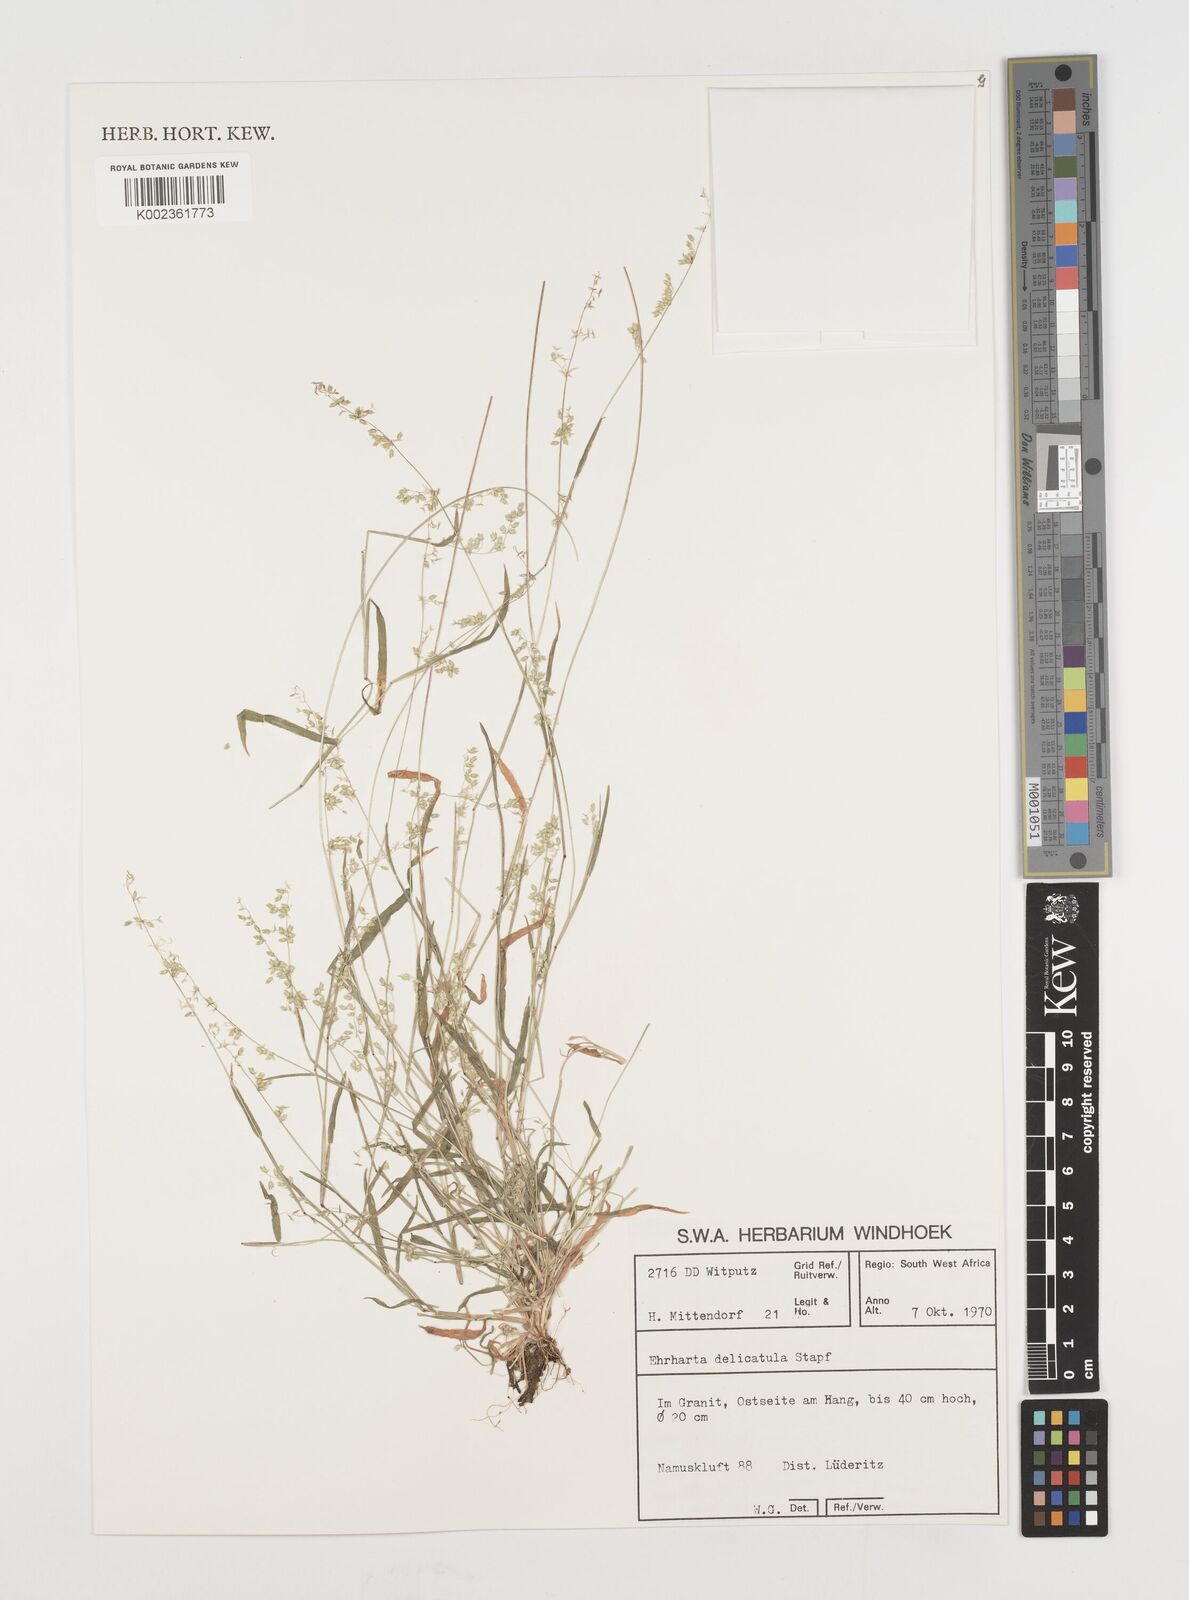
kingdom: Plantae
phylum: Tracheophyta
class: Liliopsida
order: Poales
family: Poaceae
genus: Ehrharta
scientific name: Ehrharta delicatula
